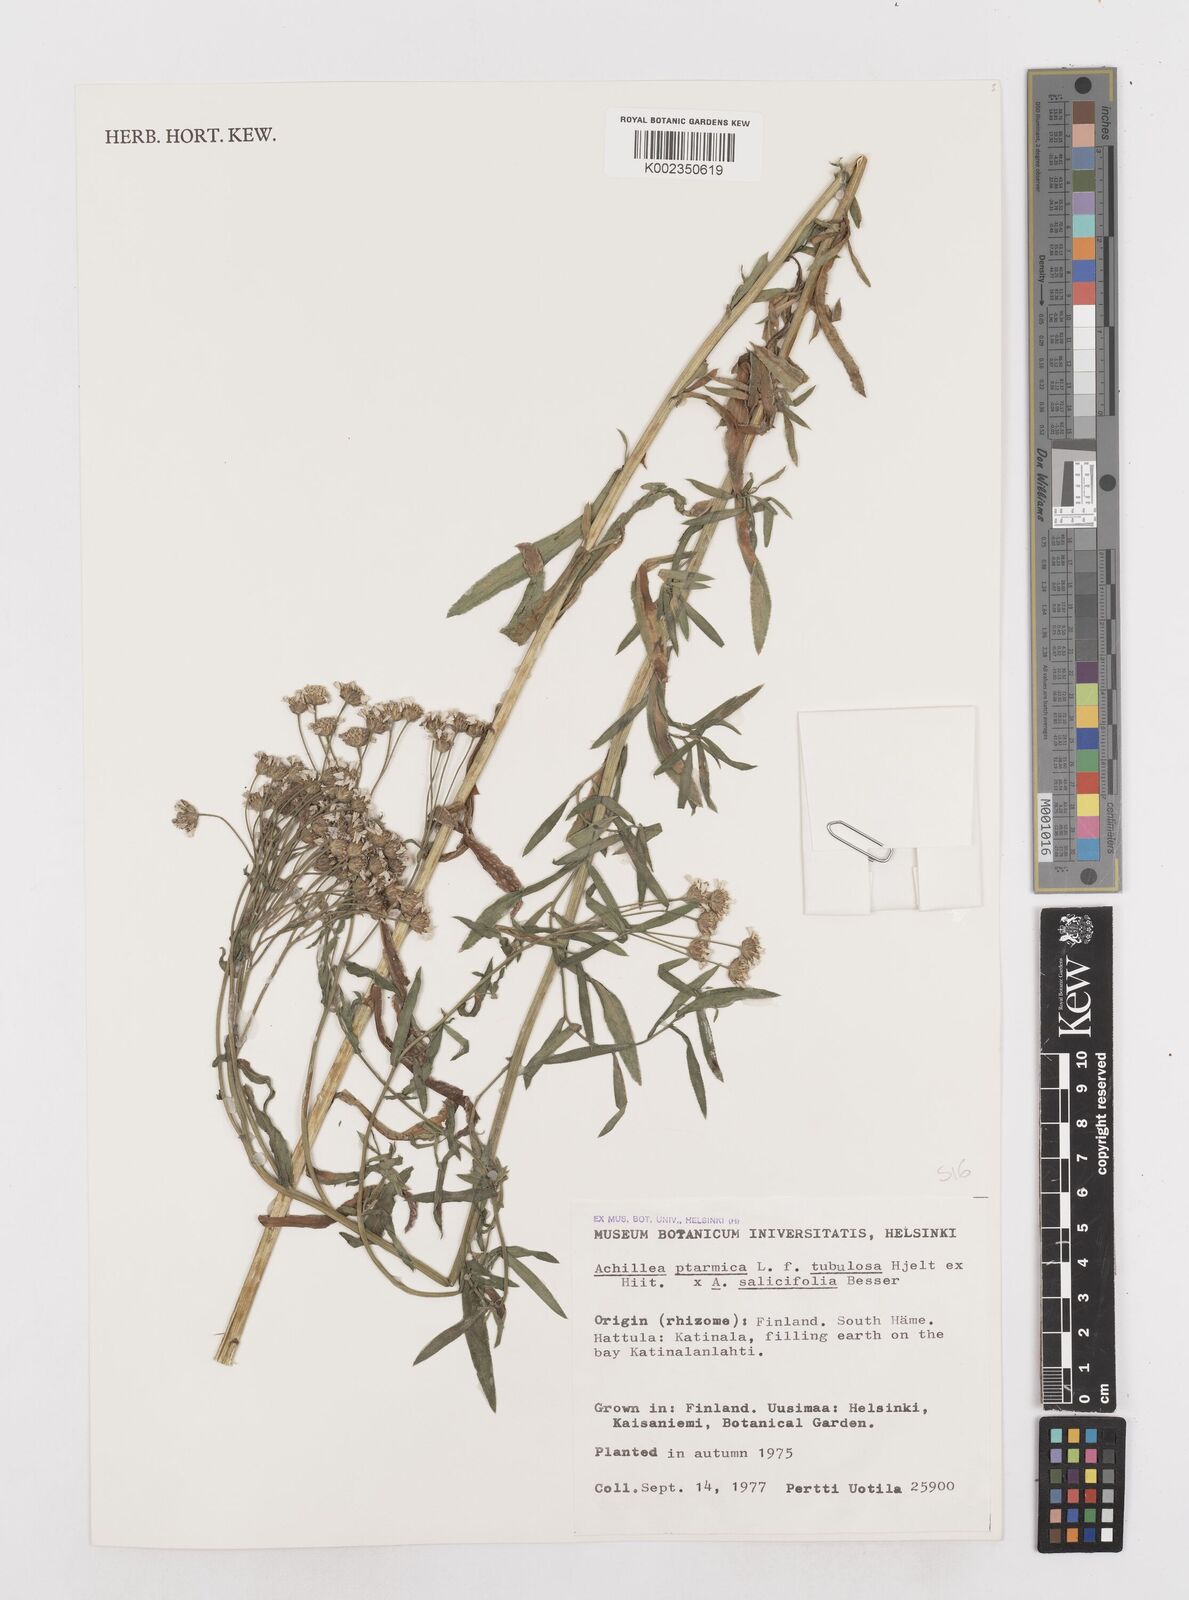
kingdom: Plantae
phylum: Tracheophyta
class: Magnoliopsida
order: Asterales
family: Asteraceae
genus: Achillea
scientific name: Achillea ptarmica
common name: Sneezeweed
